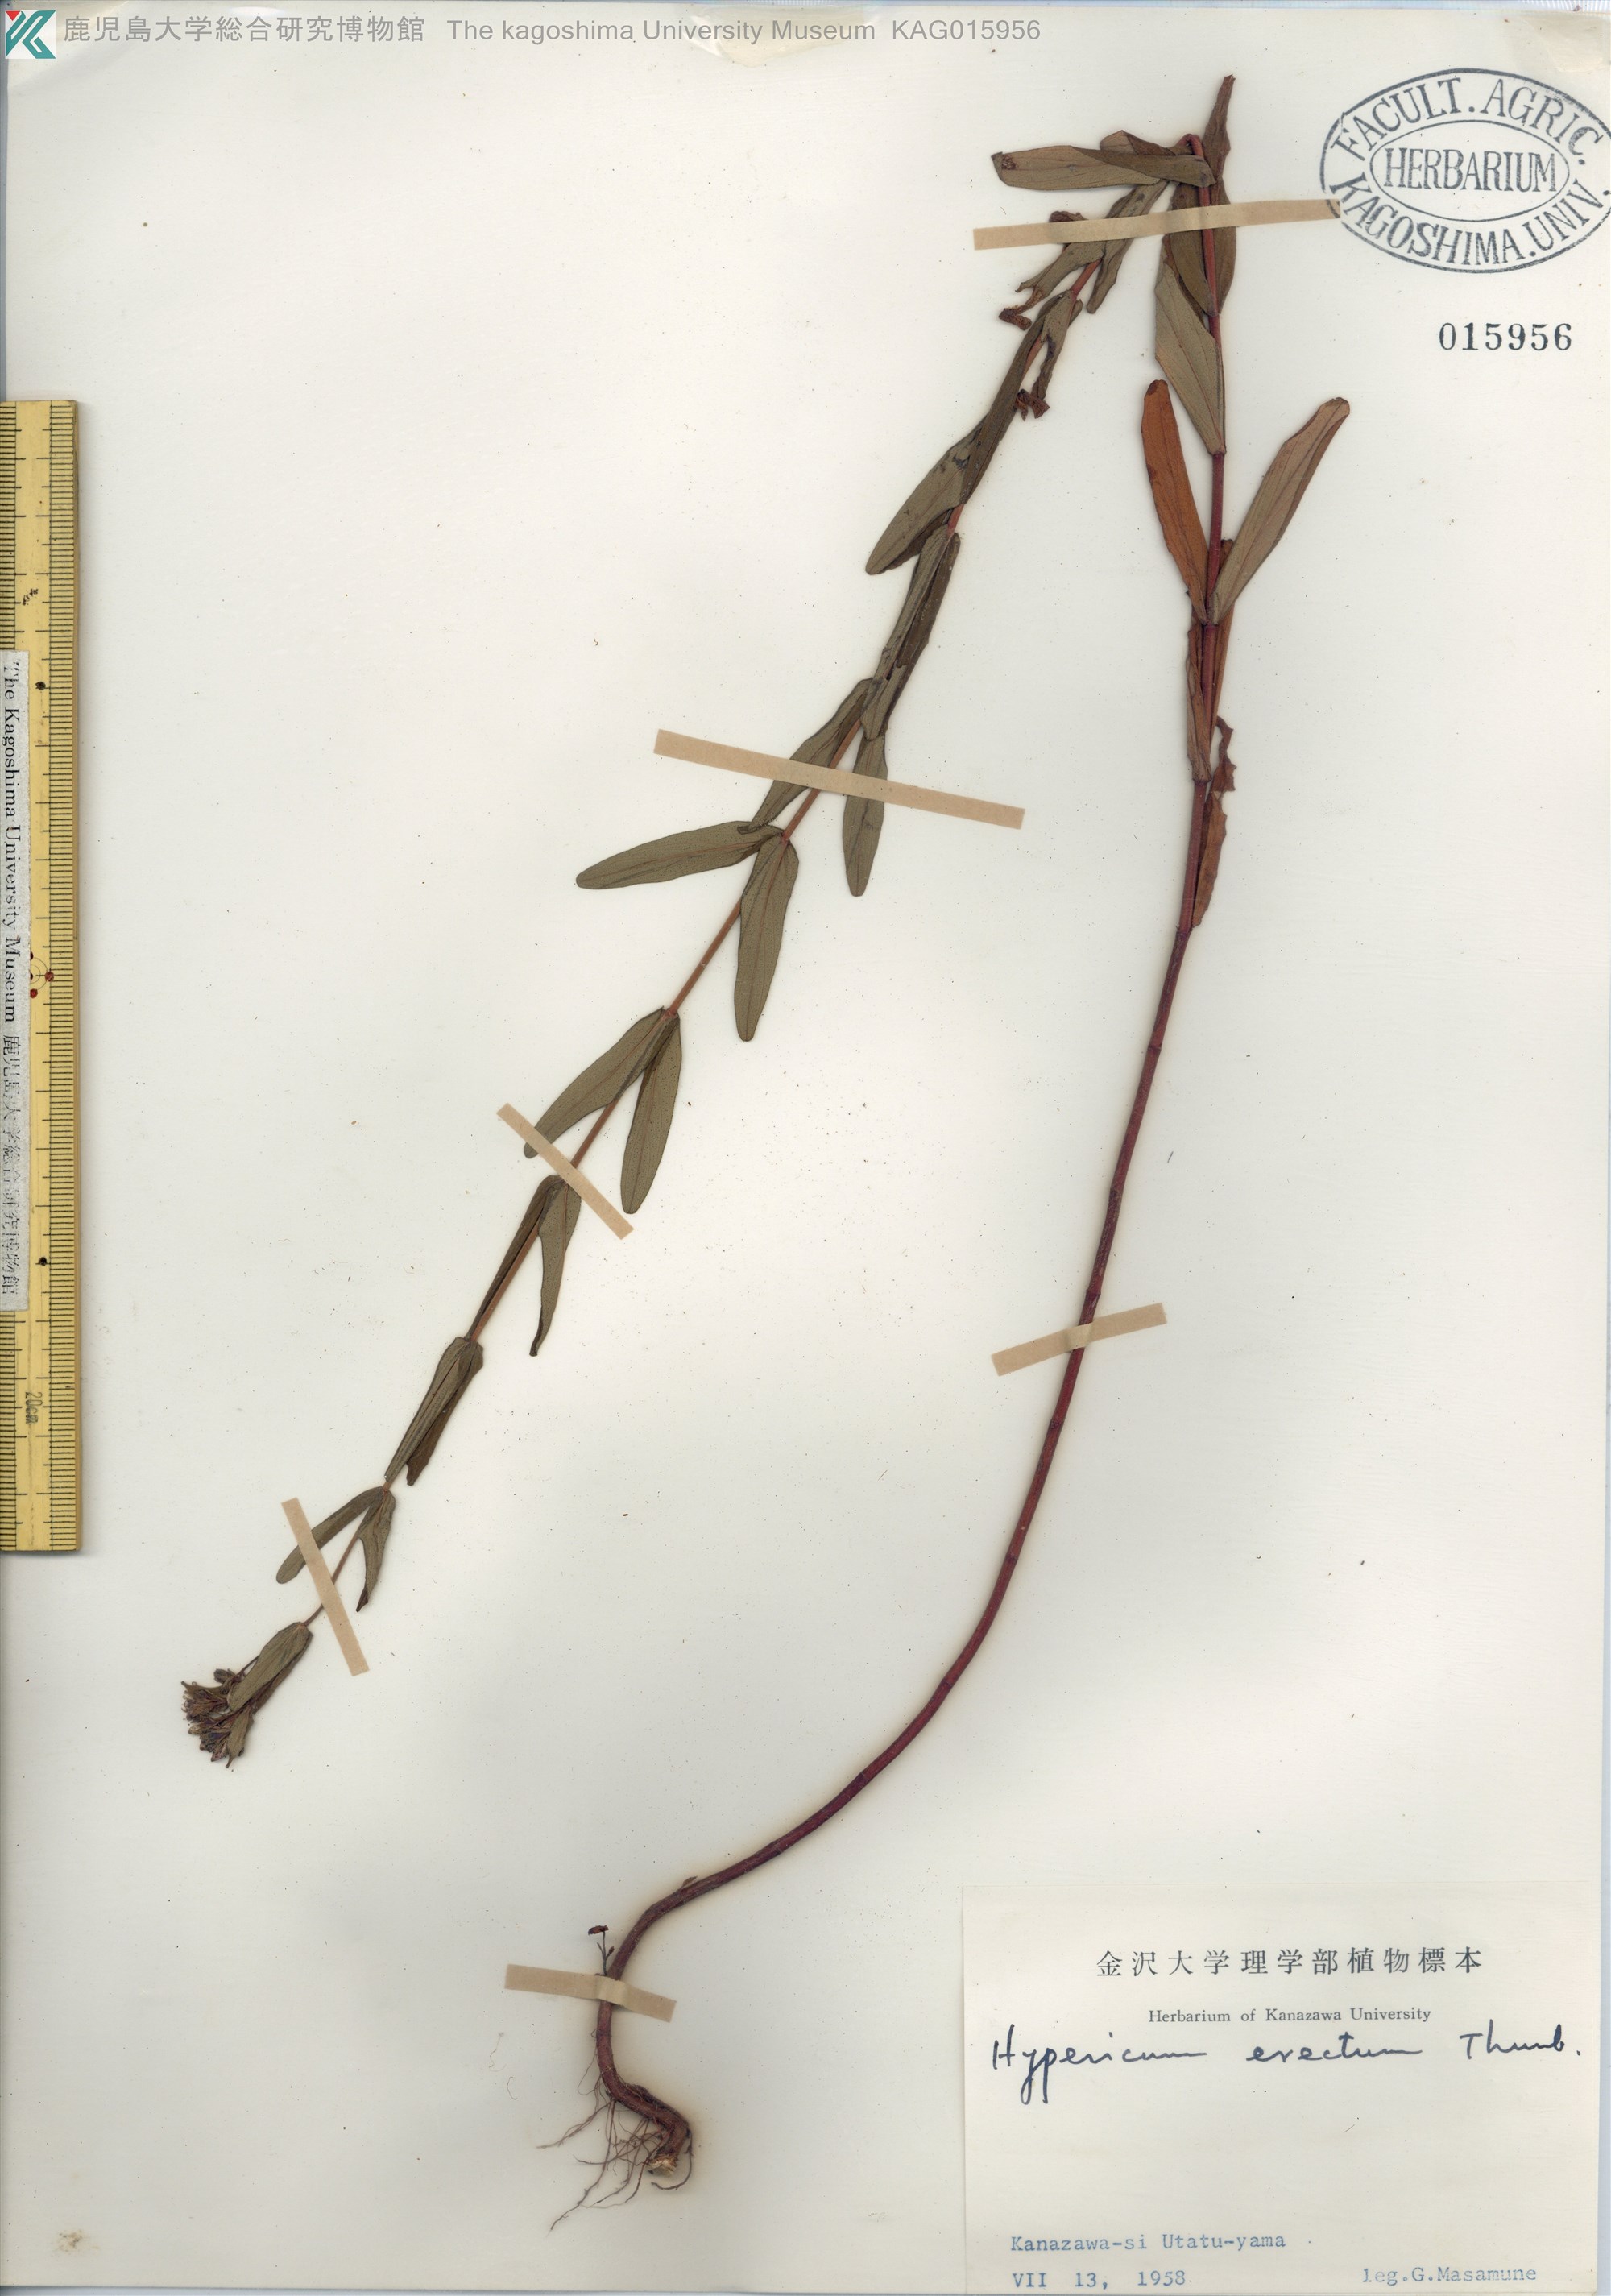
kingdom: Plantae
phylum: Tracheophyta
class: Magnoliopsida
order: Malpighiales
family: Hypericaceae
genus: Hypericum
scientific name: Hypericum erectum
